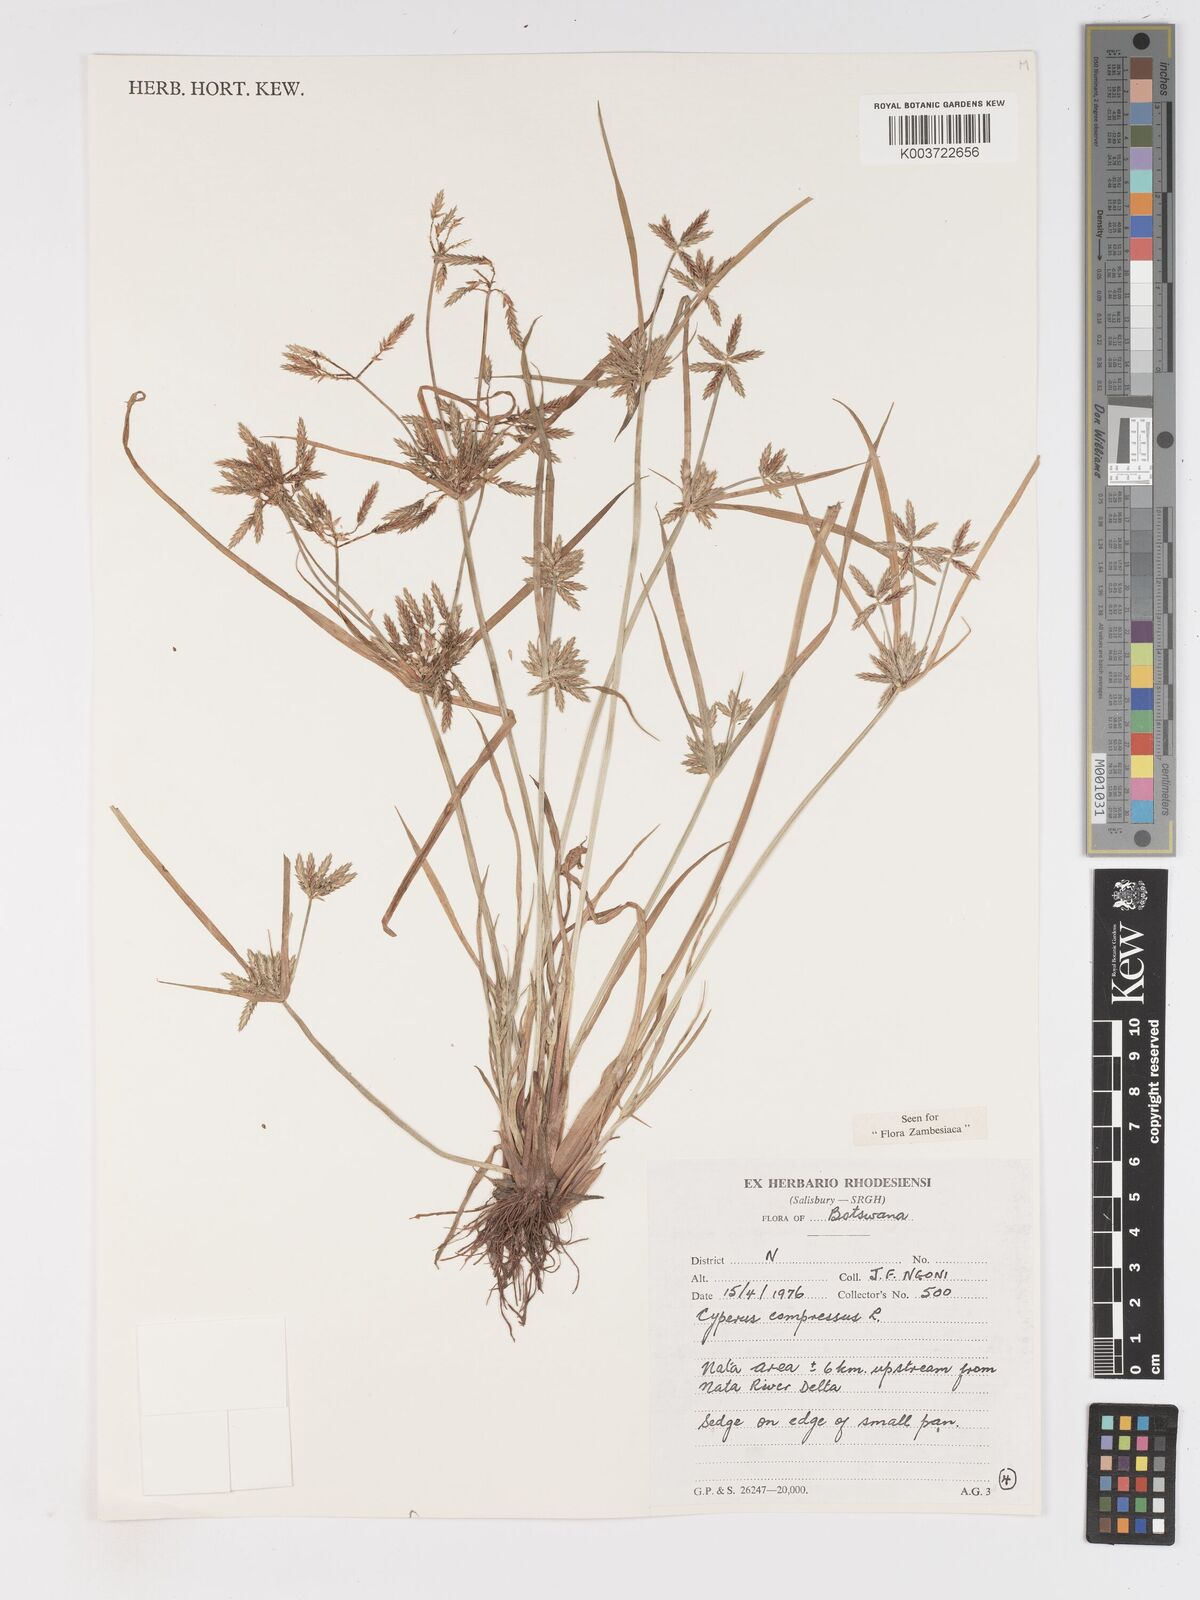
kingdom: Plantae
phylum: Tracheophyta
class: Liliopsida
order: Poales
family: Cyperaceae
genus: Cyperus
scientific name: Cyperus compressus
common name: Poorland flatsedge
